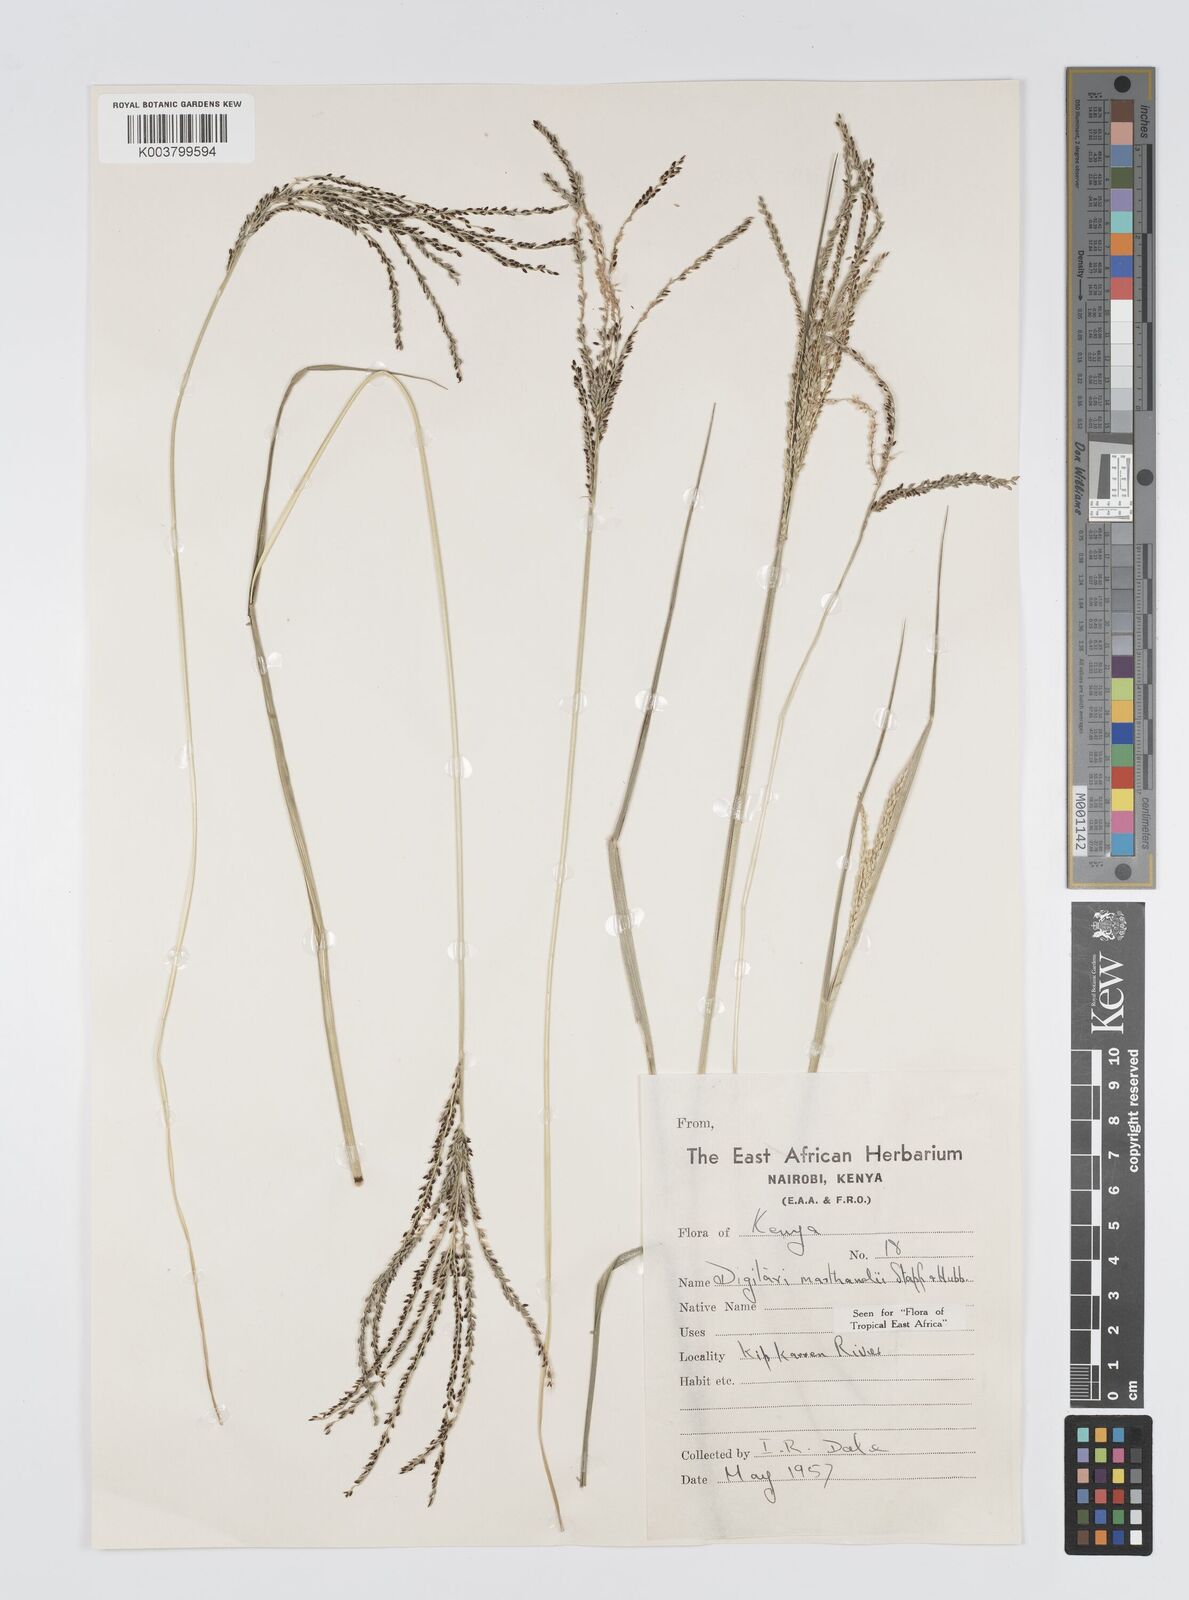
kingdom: Plantae
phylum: Tracheophyta
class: Liliopsida
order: Poales
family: Poaceae
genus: Digitaria
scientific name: Digitaria maitlandii
